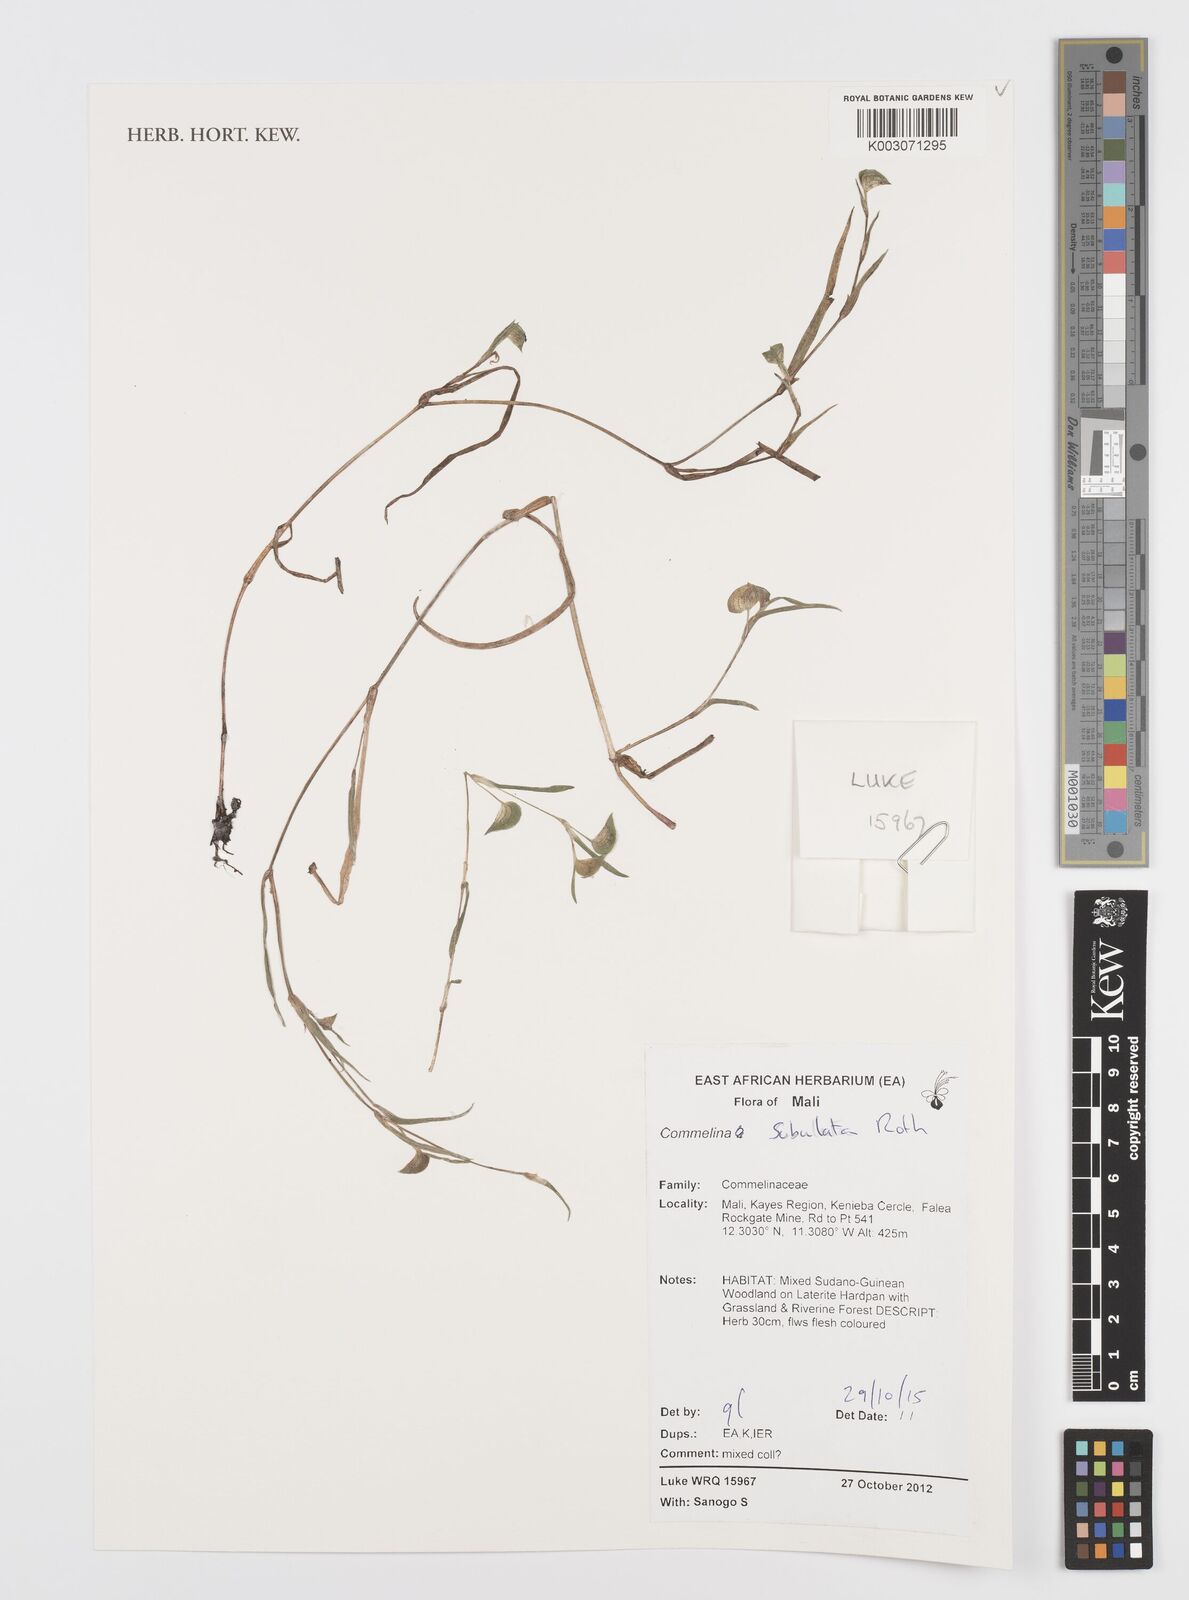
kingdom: Plantae
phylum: Tracheophyta
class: Liliopsida
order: Commelinales
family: Commelinaceae
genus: Commelina
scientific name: Commelina subulata
